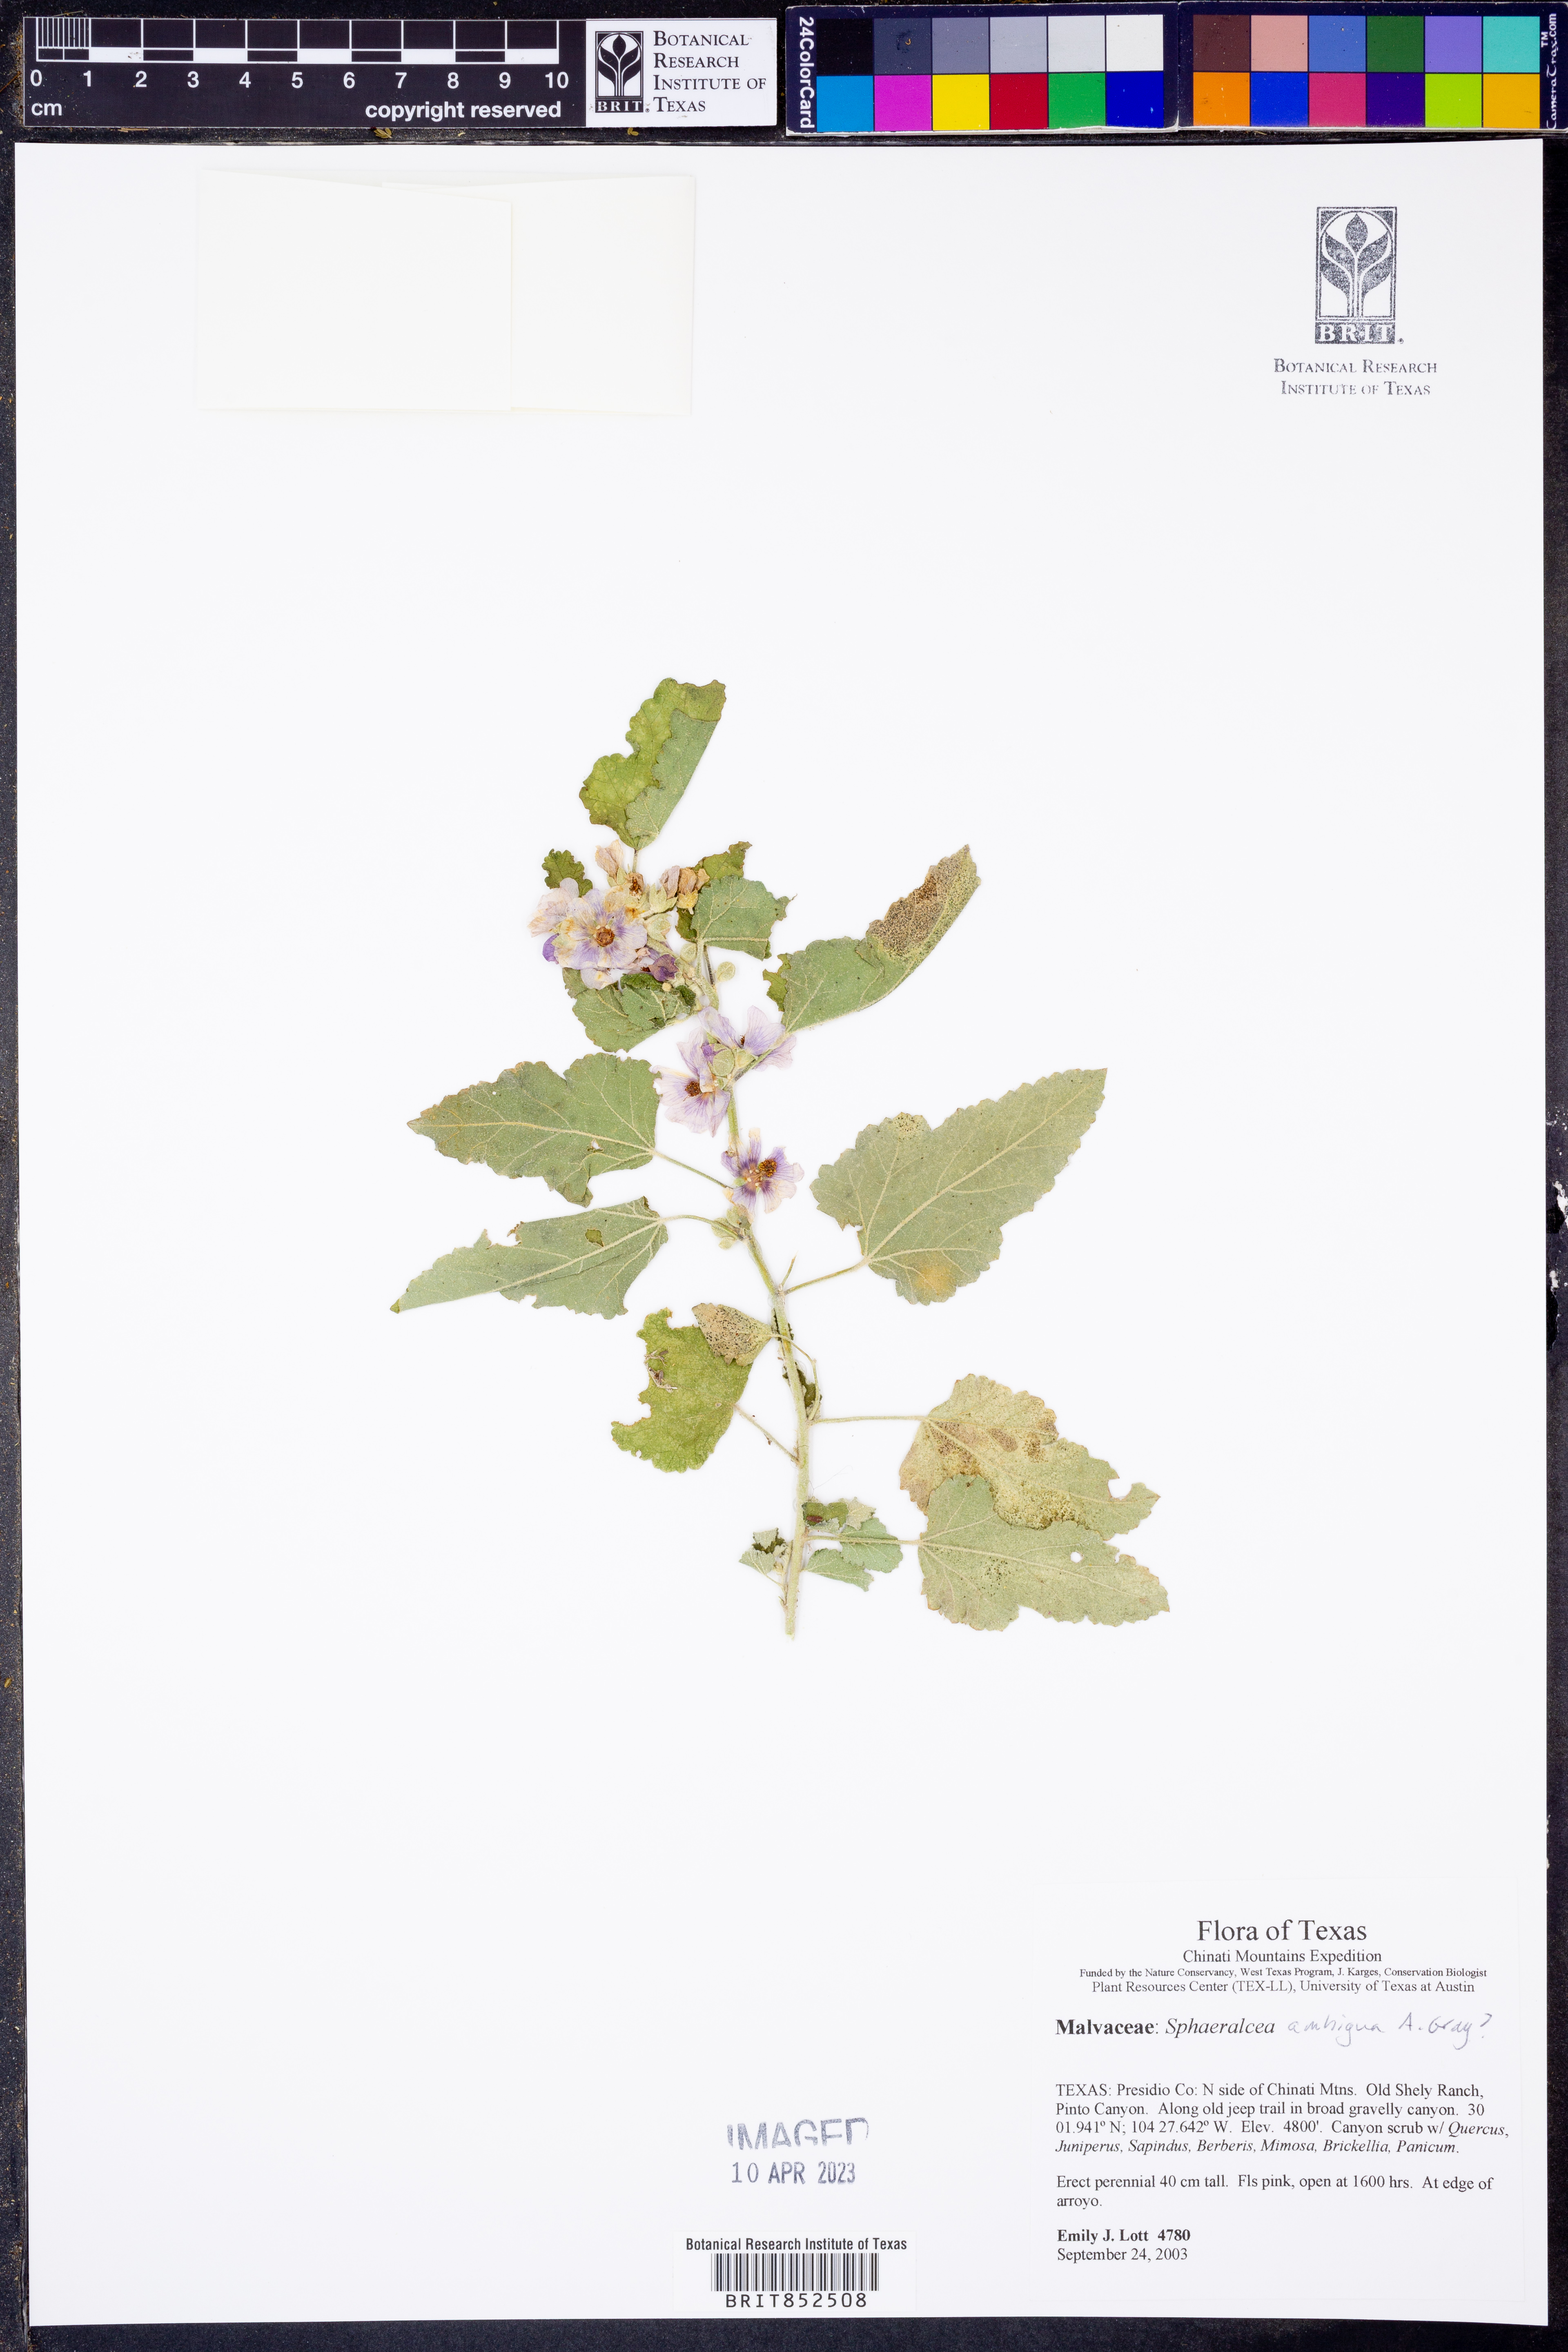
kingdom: Plantae
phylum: Tracheophyta
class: Magnoliopsida
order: Malvales
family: Malvaceae
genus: Sphaeralcea
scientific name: Sphaeralcea ambigua
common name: Apricot globe-mallow
